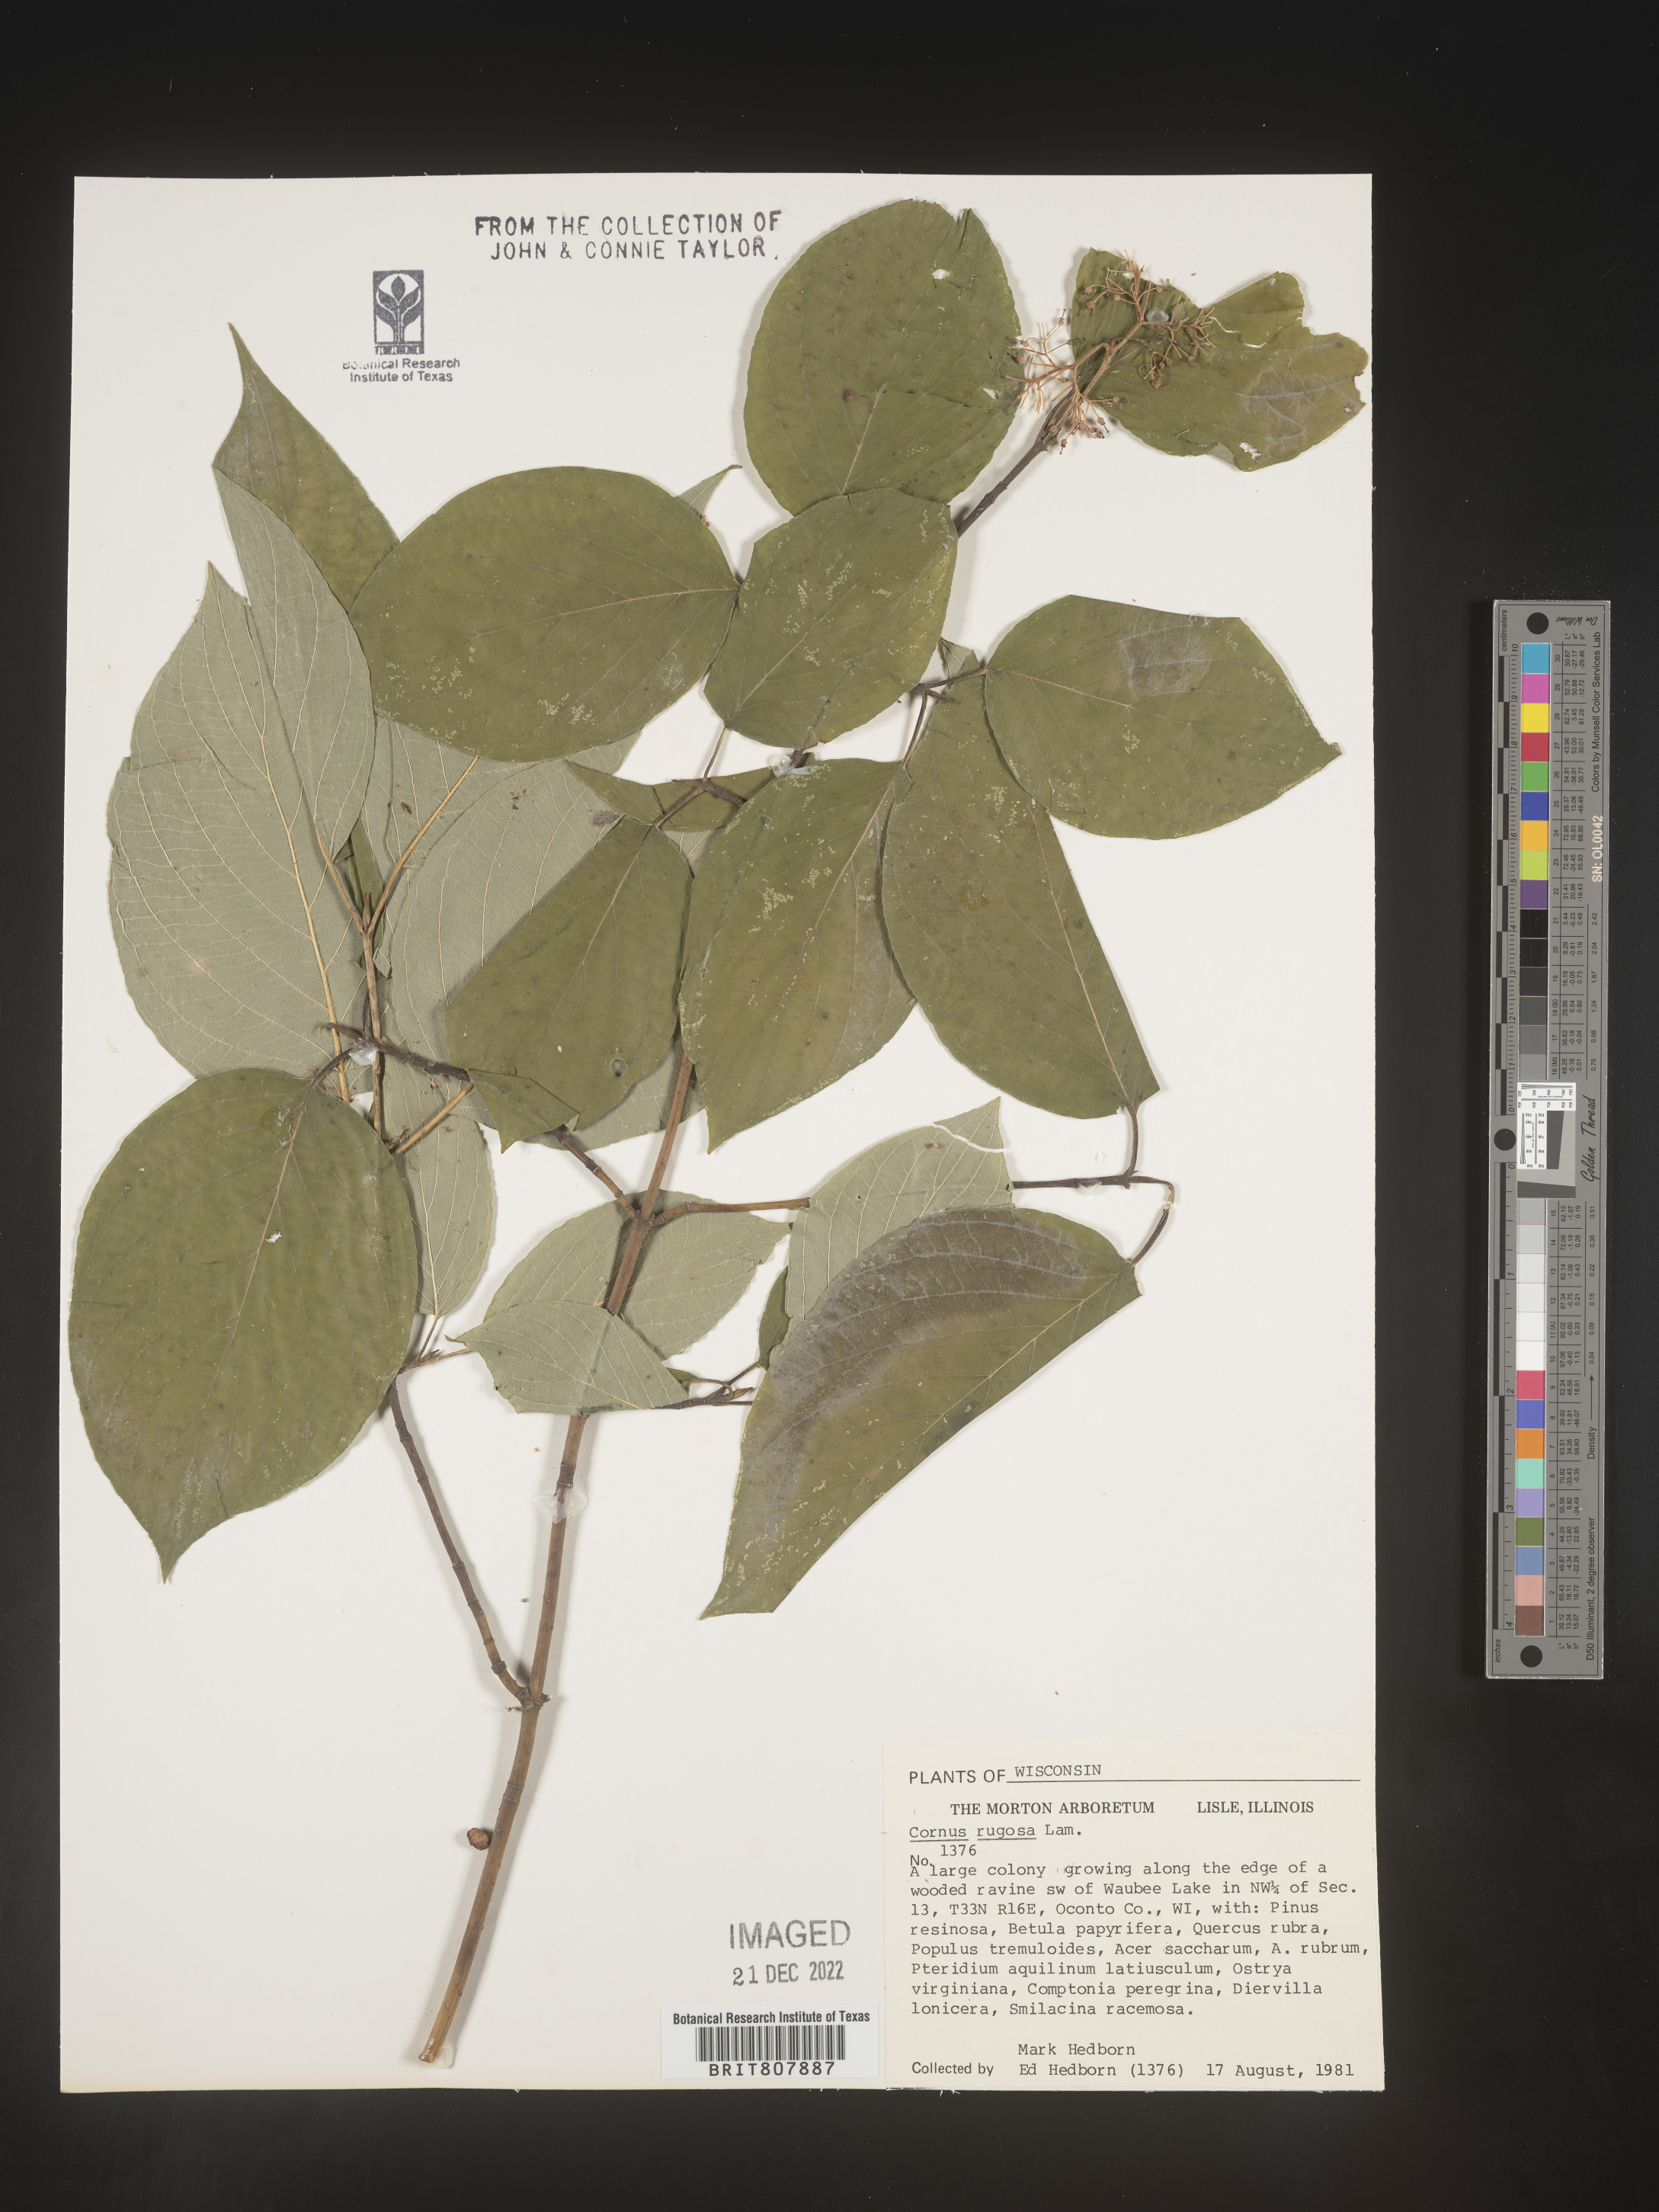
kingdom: Plantae
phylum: Tracheophyta
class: Magnoliopsida
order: Cornales
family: Cornaceae
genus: Cornus
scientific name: Cornus rugosa
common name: Round-leaf dogwood
